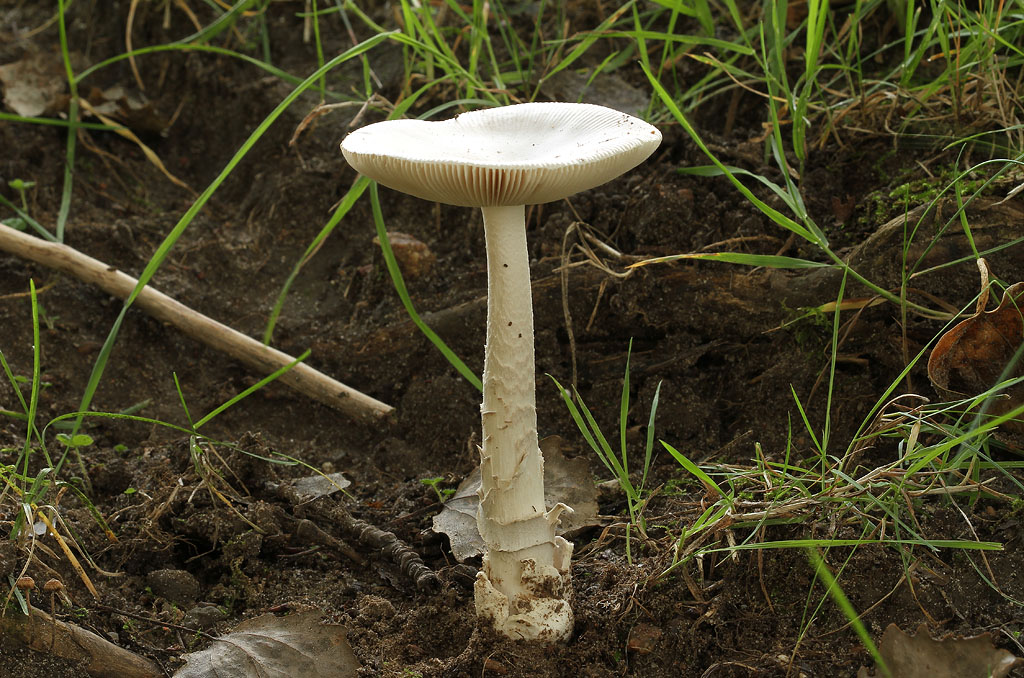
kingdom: Fungi
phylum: Basidiomycota
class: Agaricomycetes
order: Agaricales
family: Amanitaceae
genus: Amanita
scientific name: Amanita simulans
